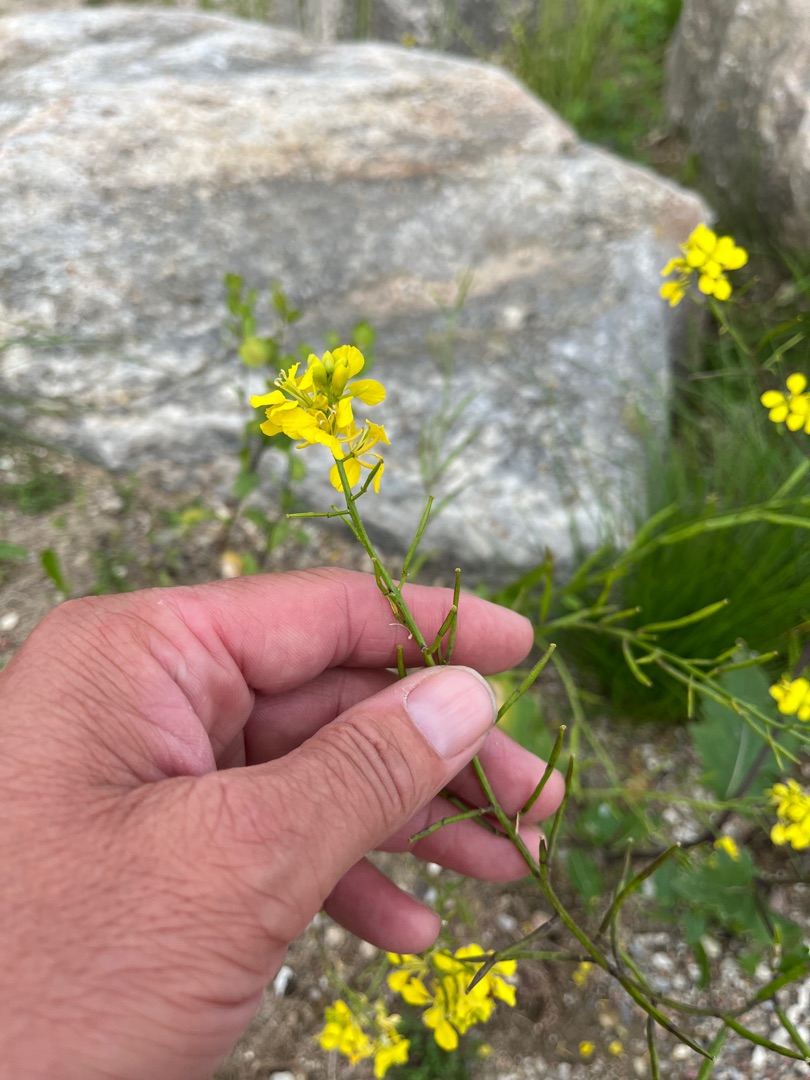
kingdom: Plantae
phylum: Tracheophyta
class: Magnoliopsida
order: Brassicales
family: Brassicaceae
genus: Sinapis
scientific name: Sinapis arvensis
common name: Ager-sennep
